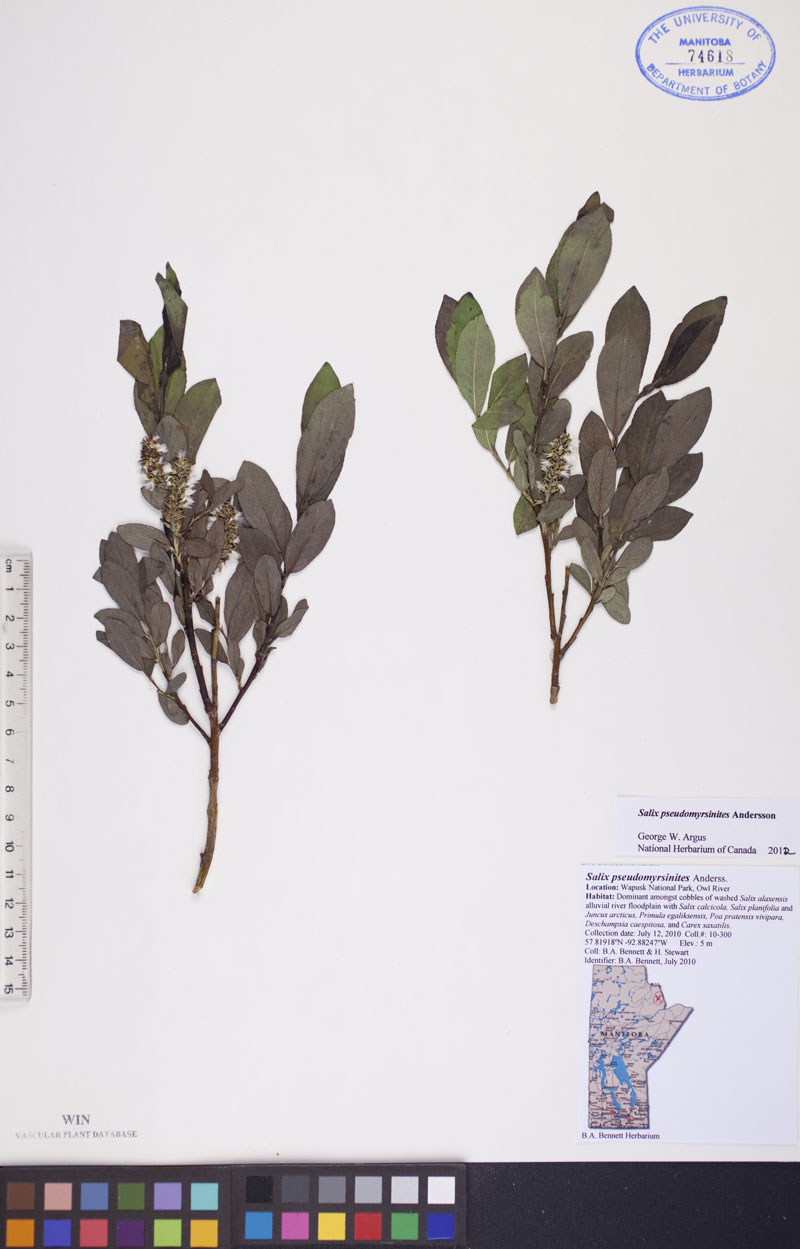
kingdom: Plantae
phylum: Tracheophyta
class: Magnoliopsida
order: Malpighiales
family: Salicaceae
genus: Salix
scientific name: Salix pseudomyrsinites
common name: Tall blueberry willow
